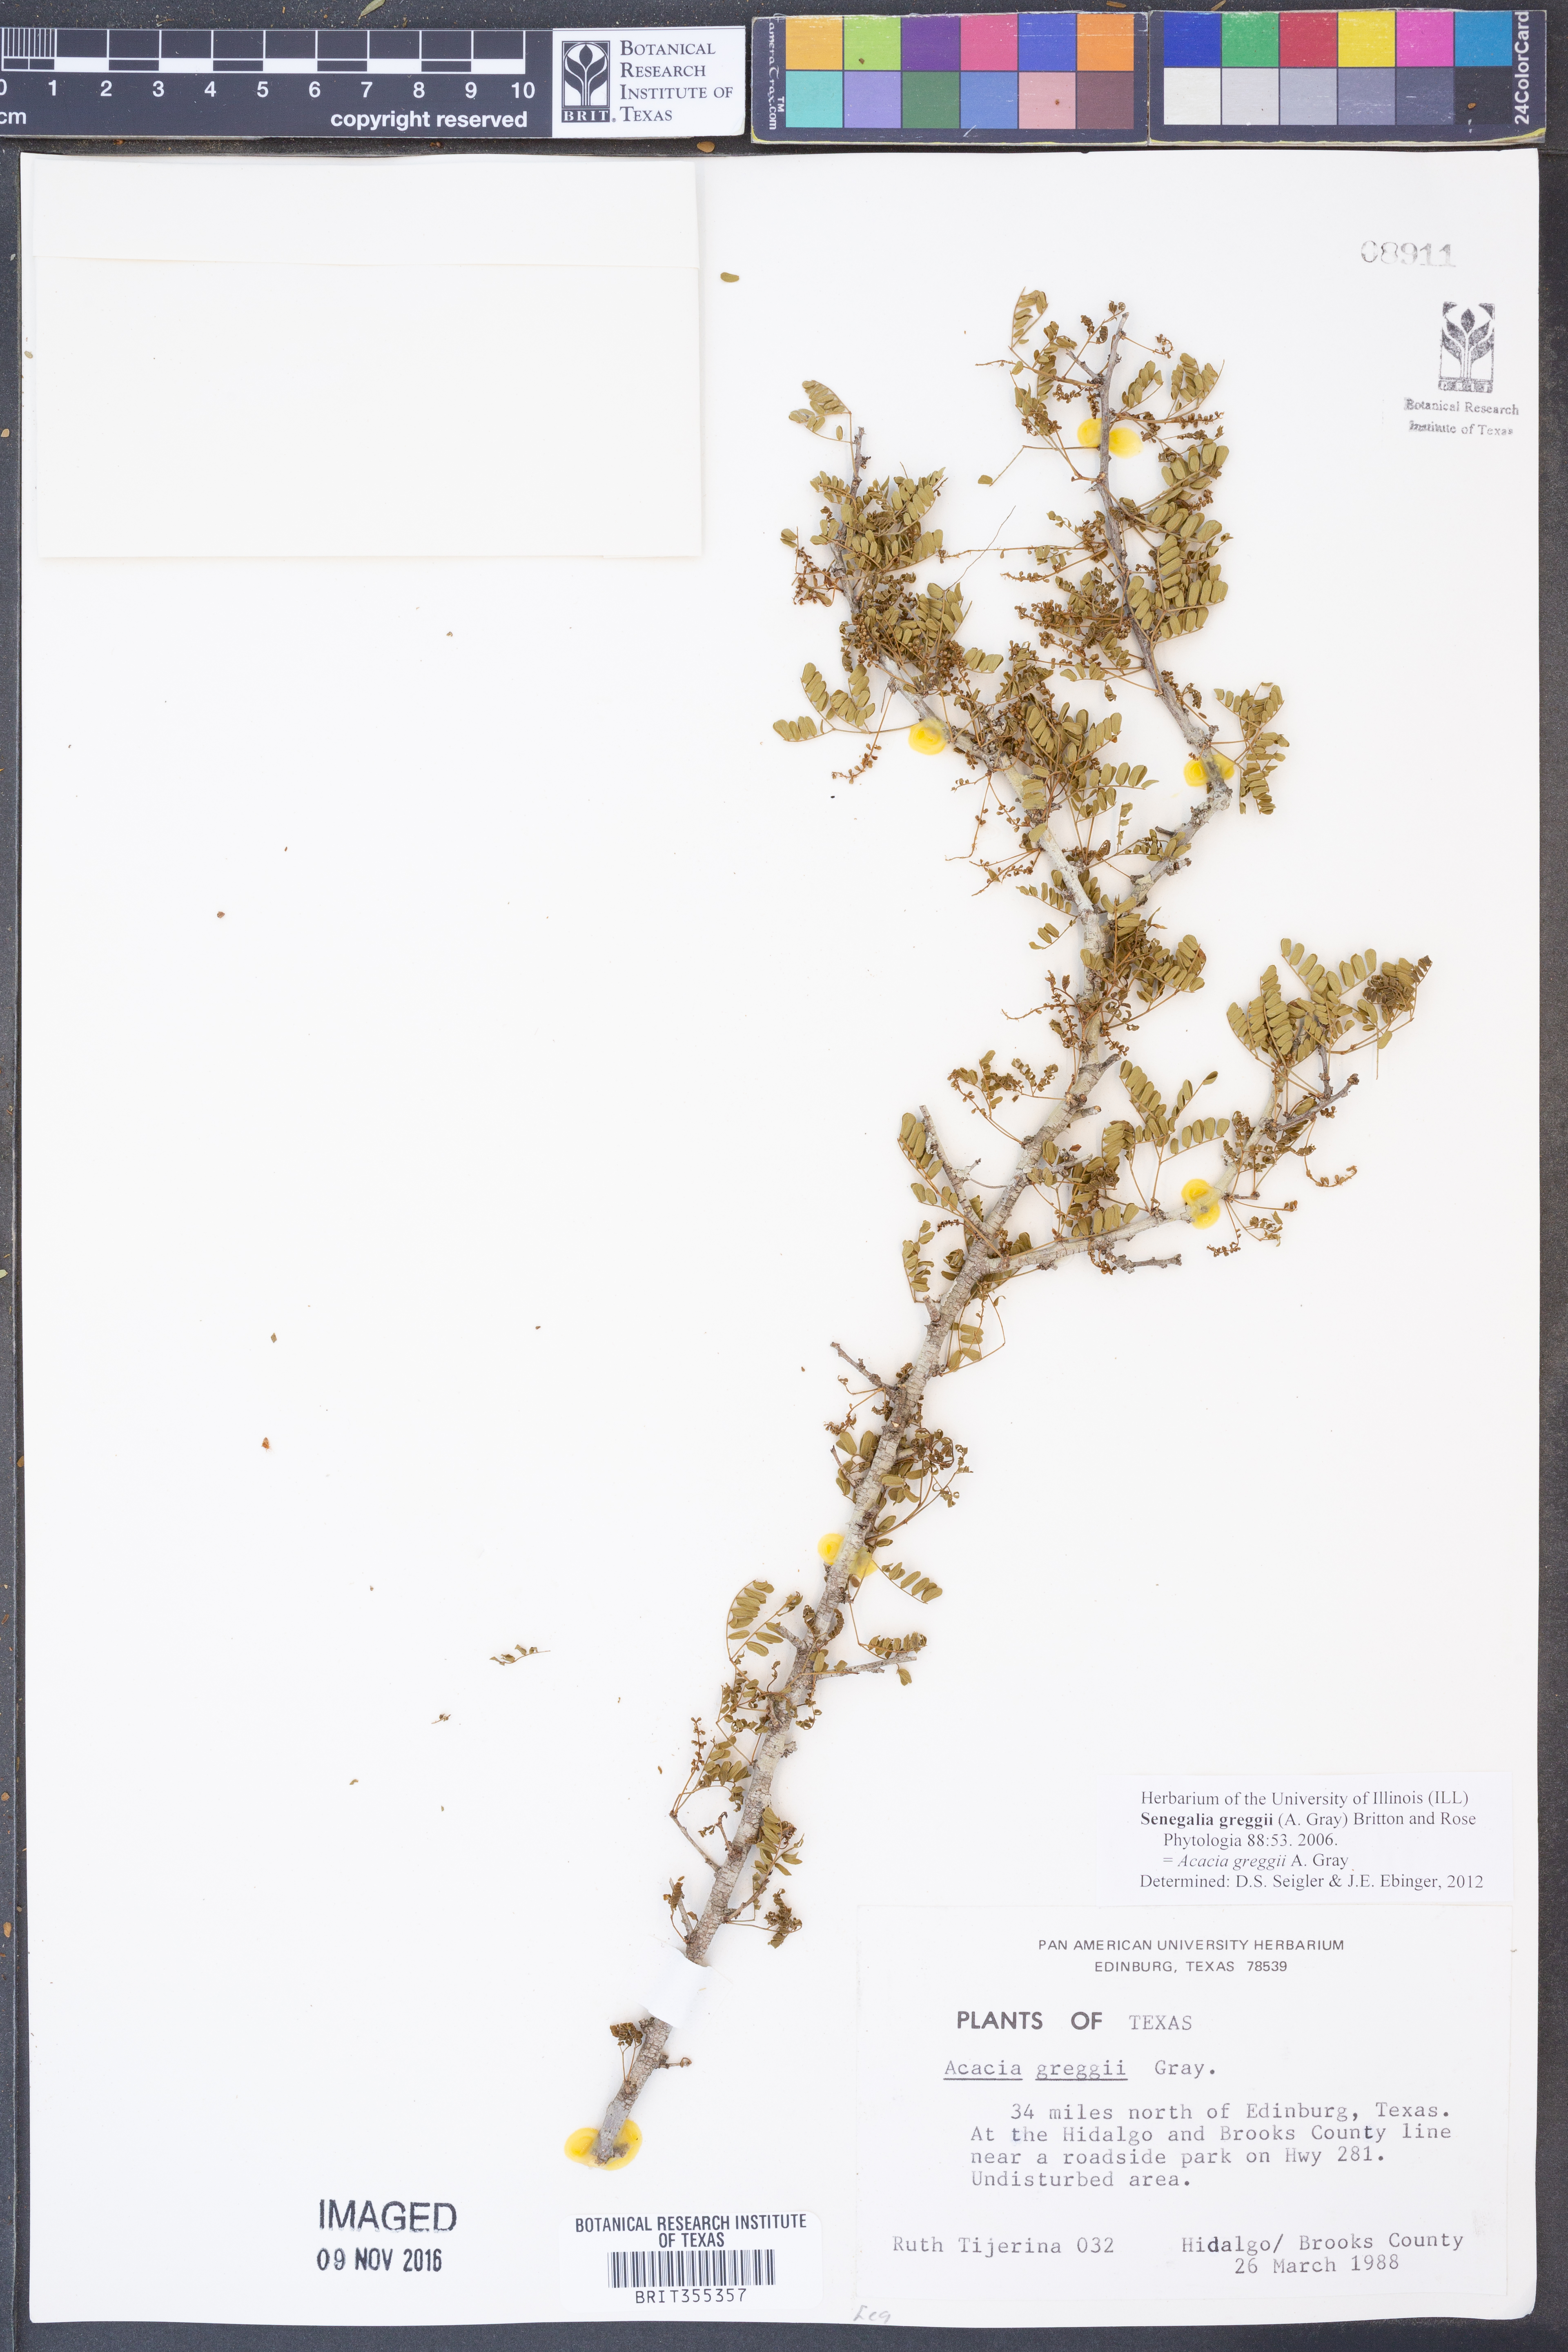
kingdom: Plantae
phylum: Tracheophyta
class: Magnoliopsida
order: Fabales
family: Fabaceae
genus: Senegalia
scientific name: Senegalia greggii
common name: Texas-mimosa
